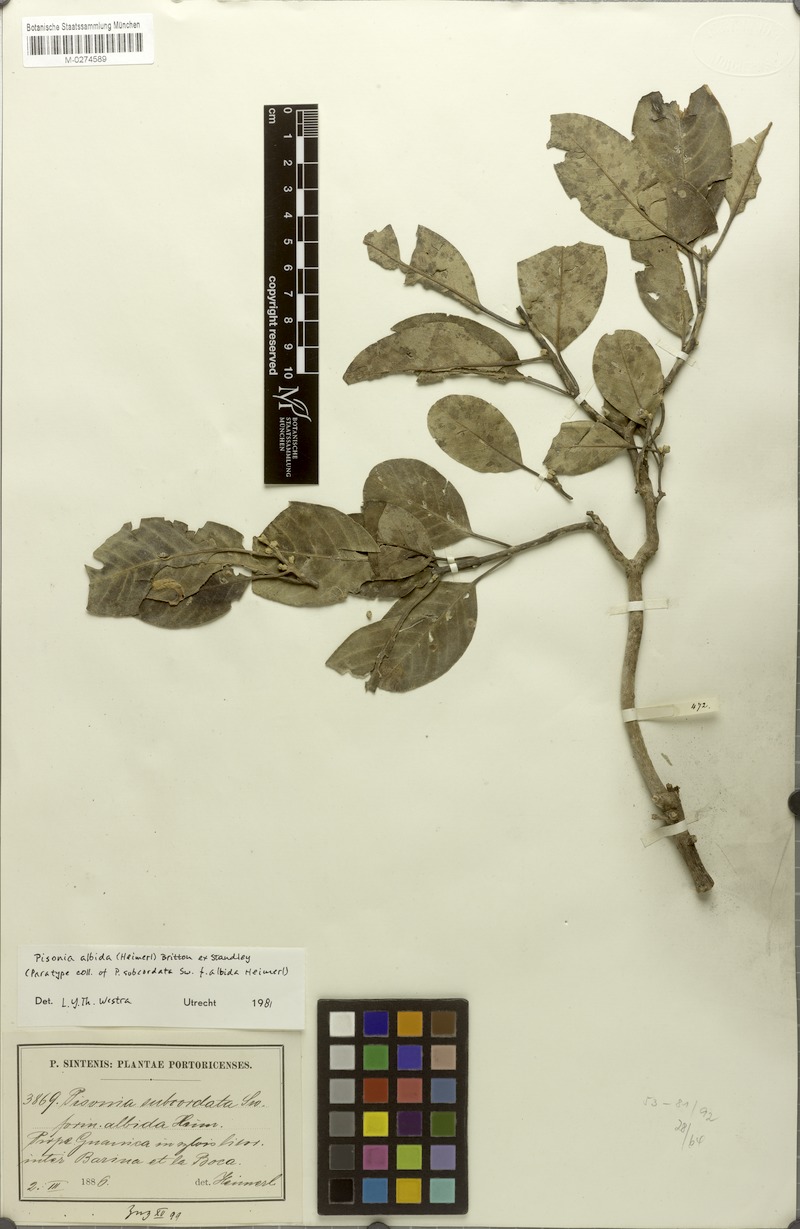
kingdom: Plantae
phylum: Tracheophyta
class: Magnoliopsida
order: Caryophyllales
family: Nyctaginaceae
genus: Pisonia
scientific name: Pisonia albida
